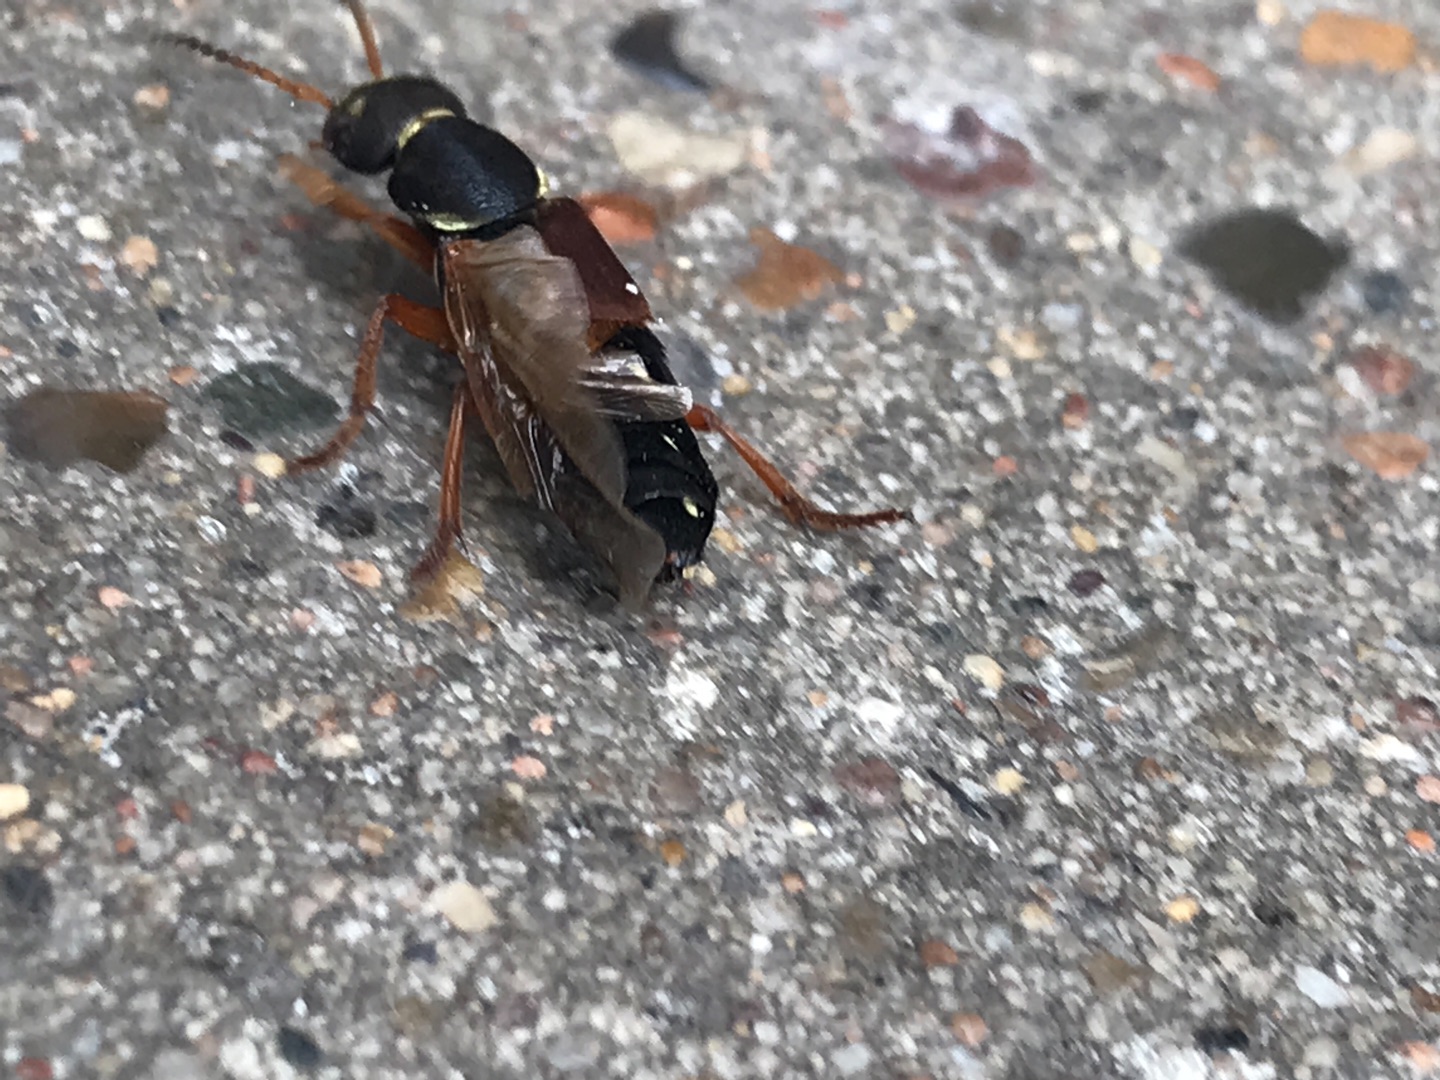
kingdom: Animalia
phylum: Arthropoda
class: Insecta
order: Coleoptera
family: Staphylinidae
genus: Staphylinus
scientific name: Staphylinus dimidiaticornis
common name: Sortkindet kejserrovbille
